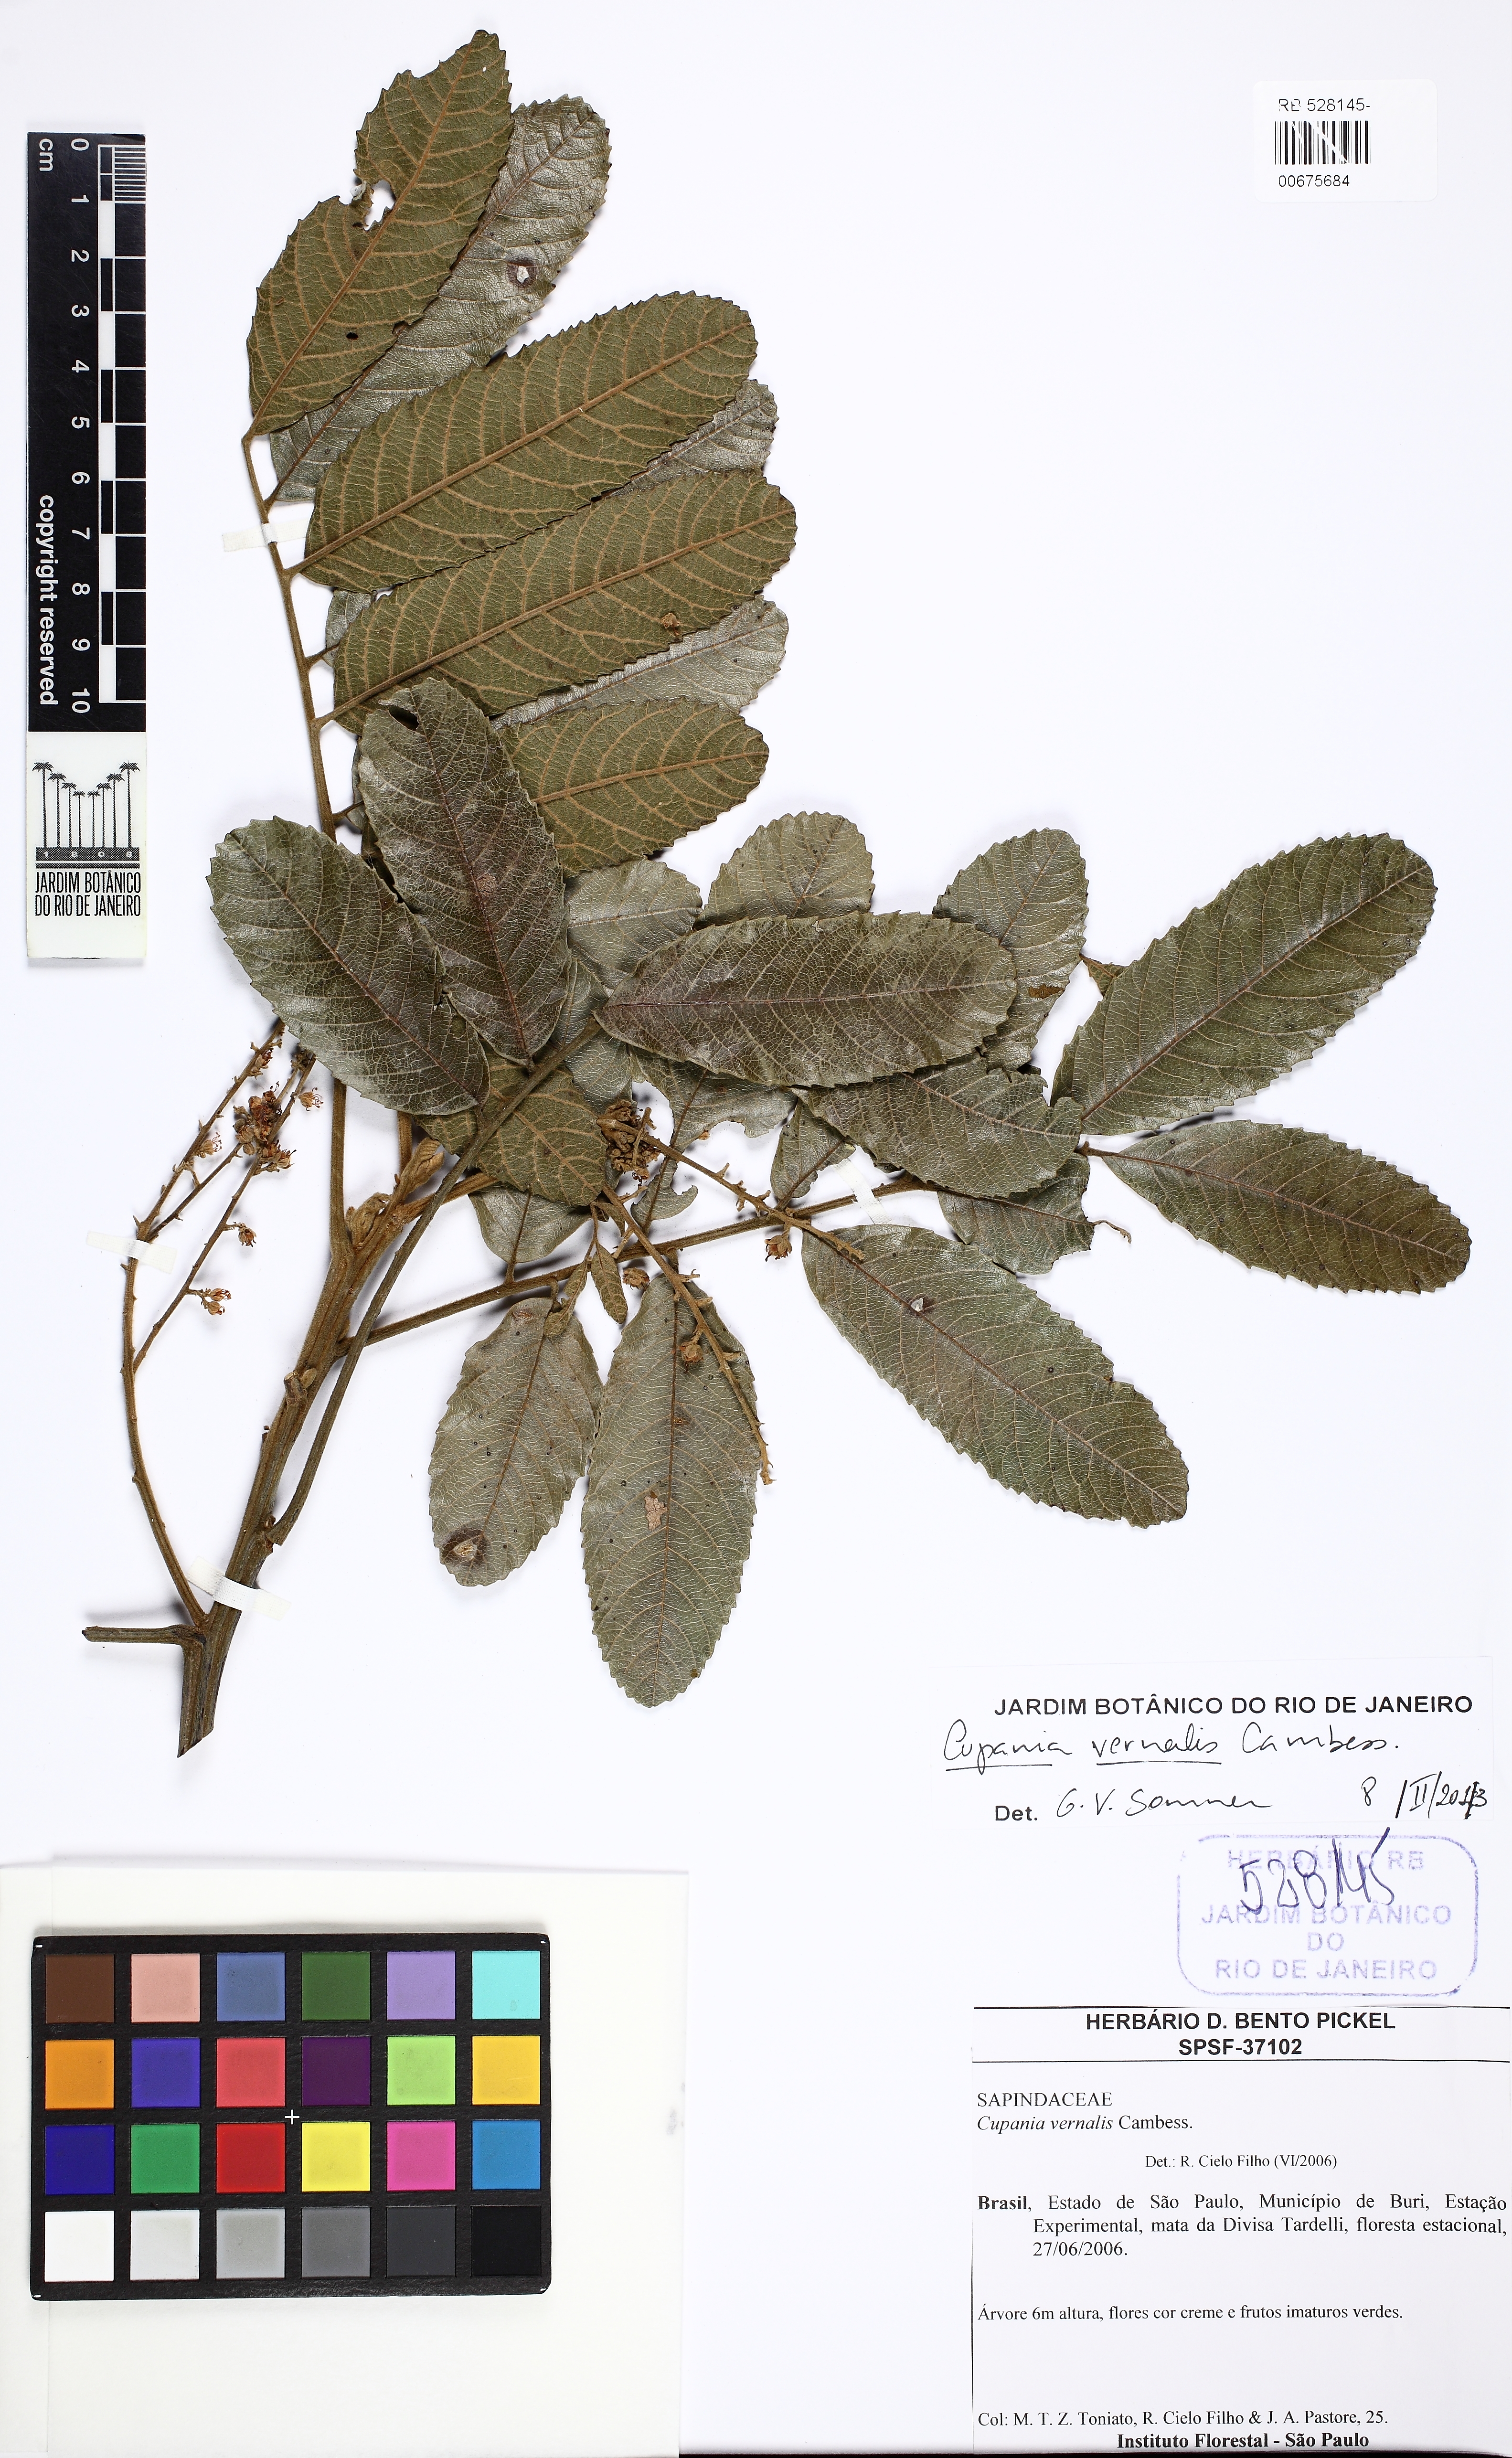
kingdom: Plantae
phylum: Tracheophyta
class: Magnoliopsida
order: Sapindales
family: Sapindaceae
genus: Cupania
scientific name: Cupania vernalis
